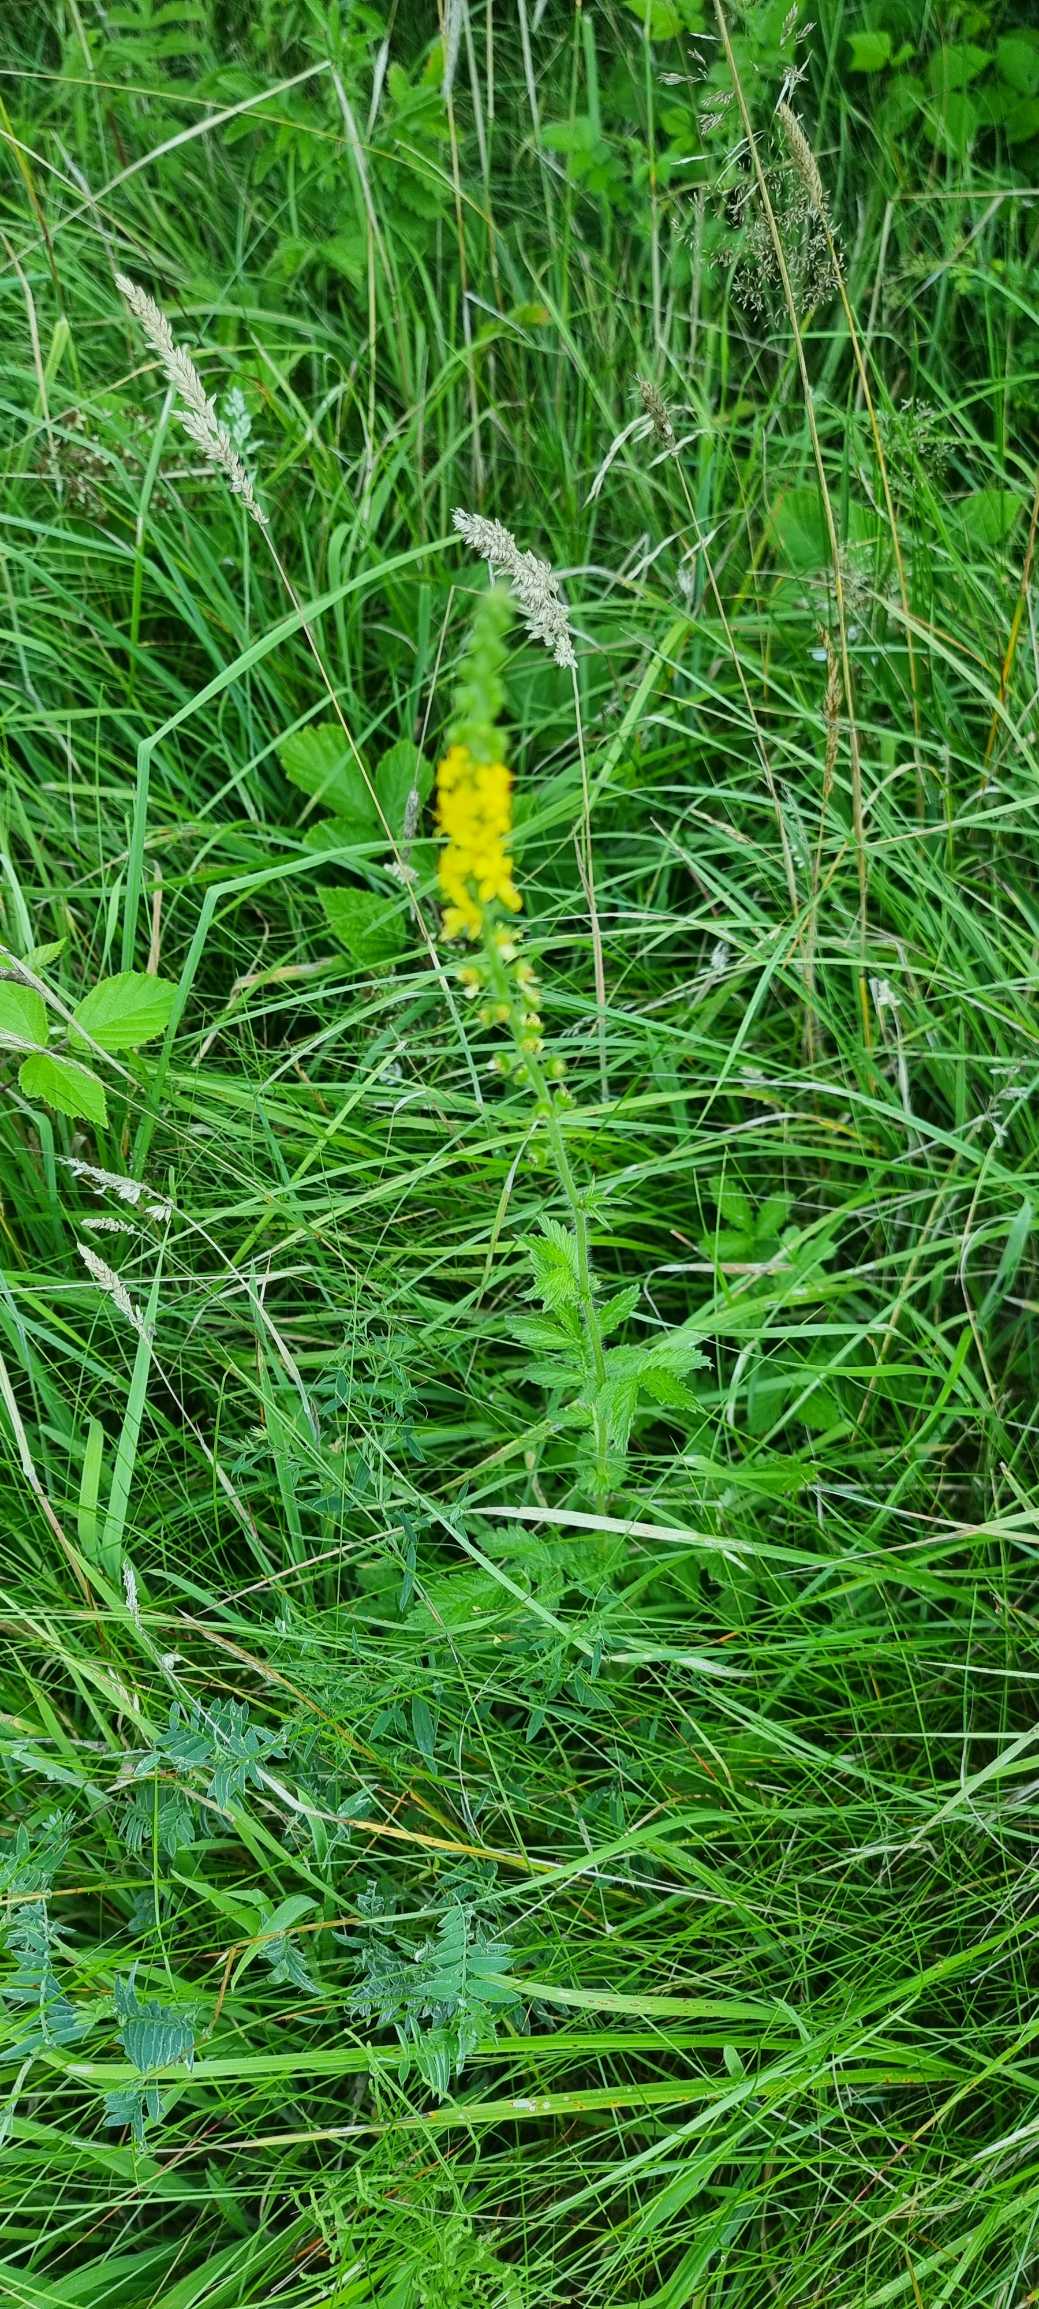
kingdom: Plantae
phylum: Tracheophyta
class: Magnoliopsida
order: Rosales
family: Rosaceae
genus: Agrimonia
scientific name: Agrimonia eupatoria
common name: Almindelig agermåne
